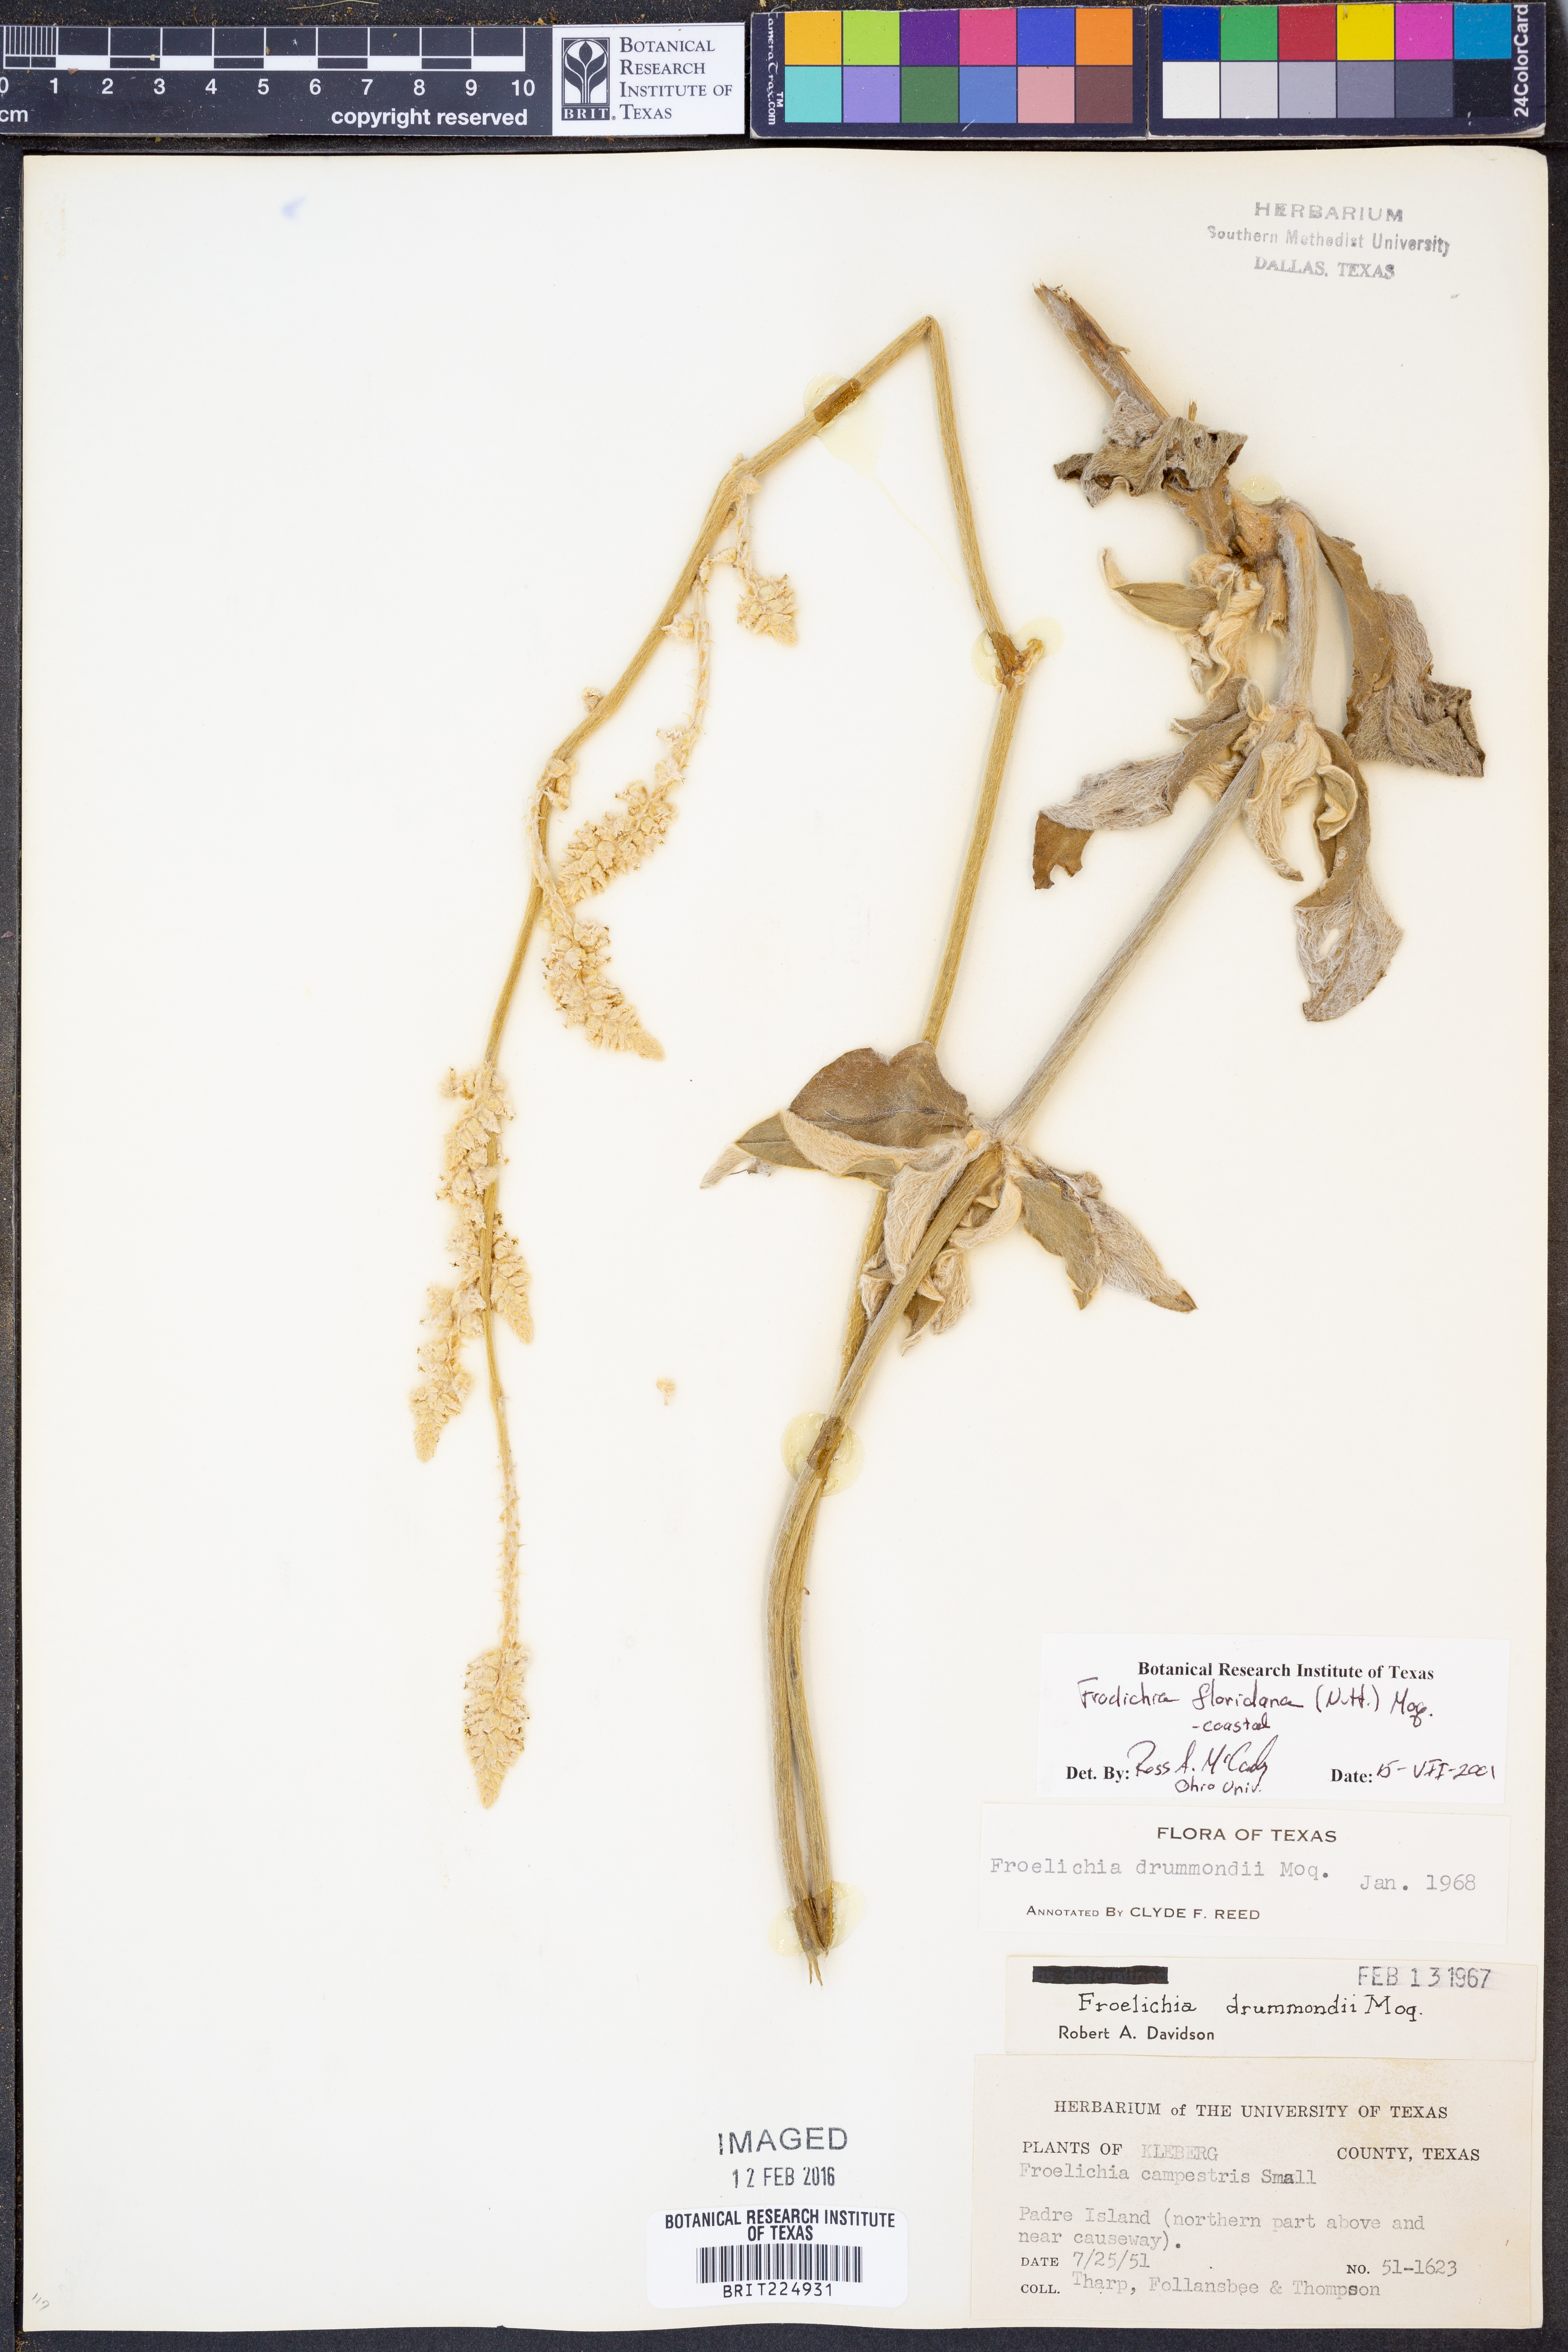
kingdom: Plantae
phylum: Tracheophyta
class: Magnoliopsida
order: Caryophyllales
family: Amaranthaceae
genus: Froelichia
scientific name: Froelichia floridana
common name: Florida snake-cotton
